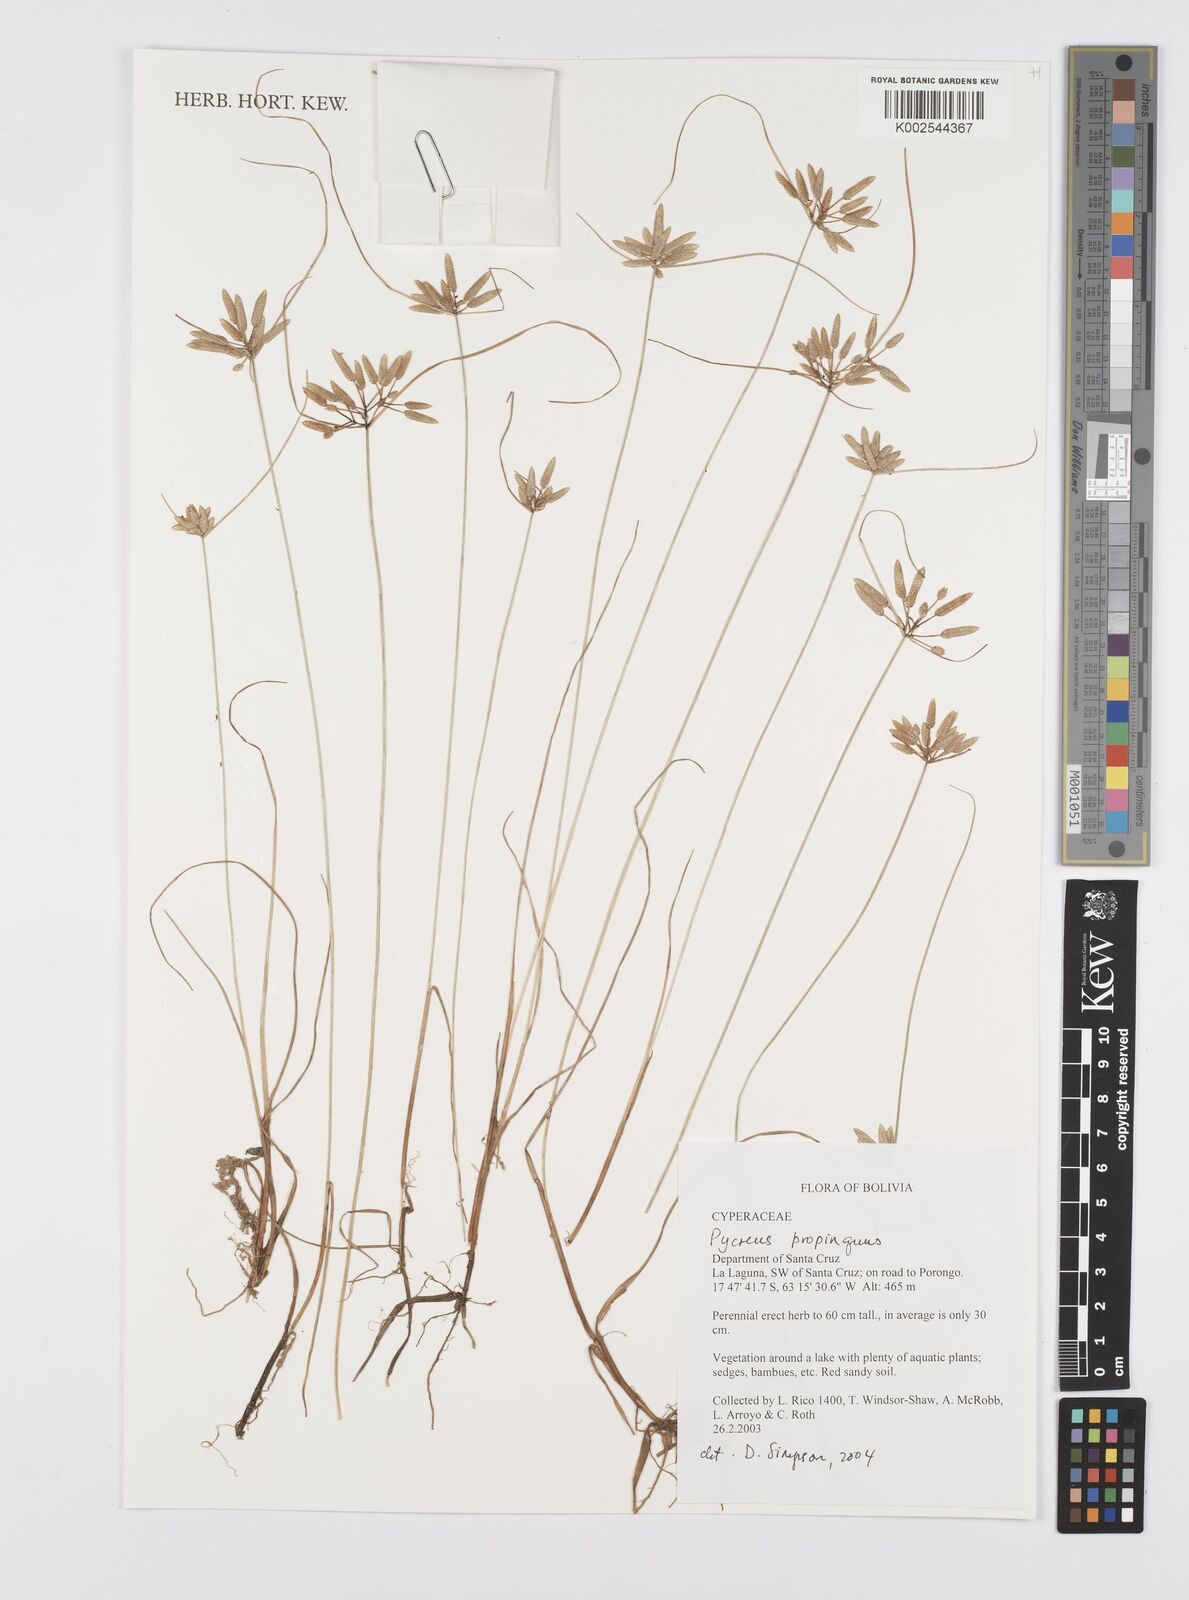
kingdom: Plantae
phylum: Tracheophyta
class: Liliopsida
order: Poales
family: Cyperaceae
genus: Cyperus
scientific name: Cyperus
